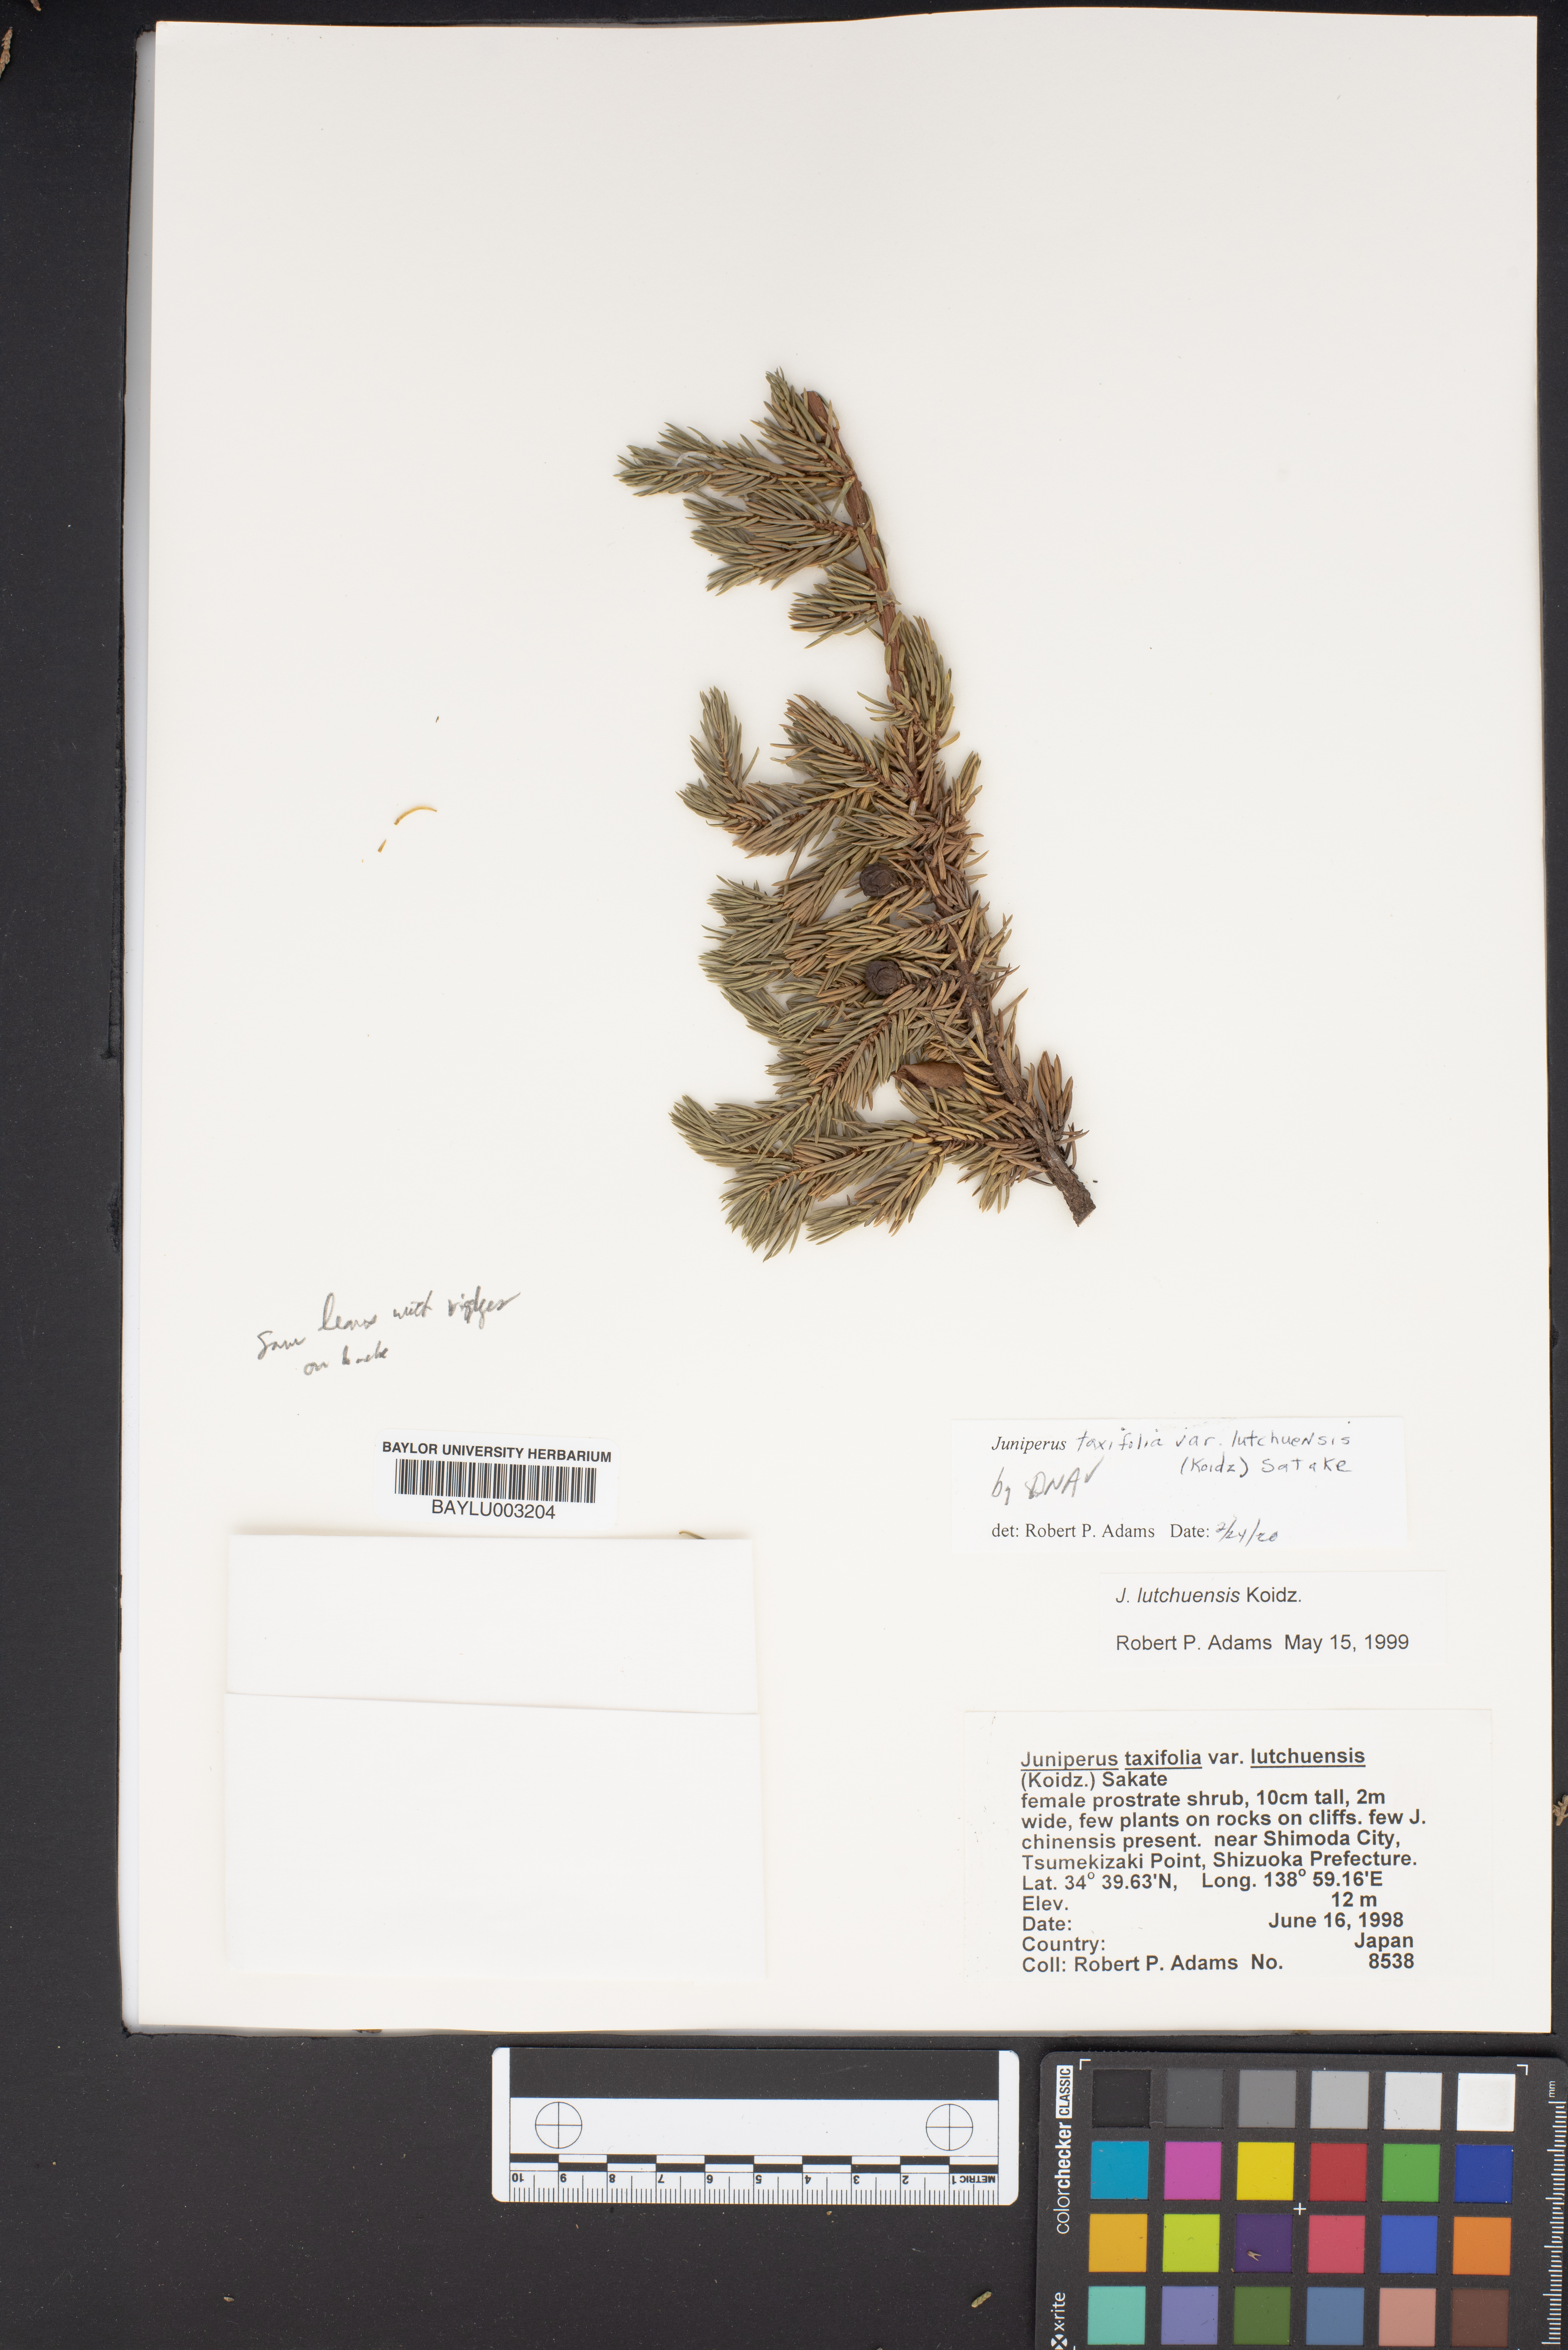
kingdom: Plantae
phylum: Tracheophyta
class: Pinopsida
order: Pinales
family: Cupressaceae
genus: Juniperus
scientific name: Juniperus taxifolia
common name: Fitcheisi
